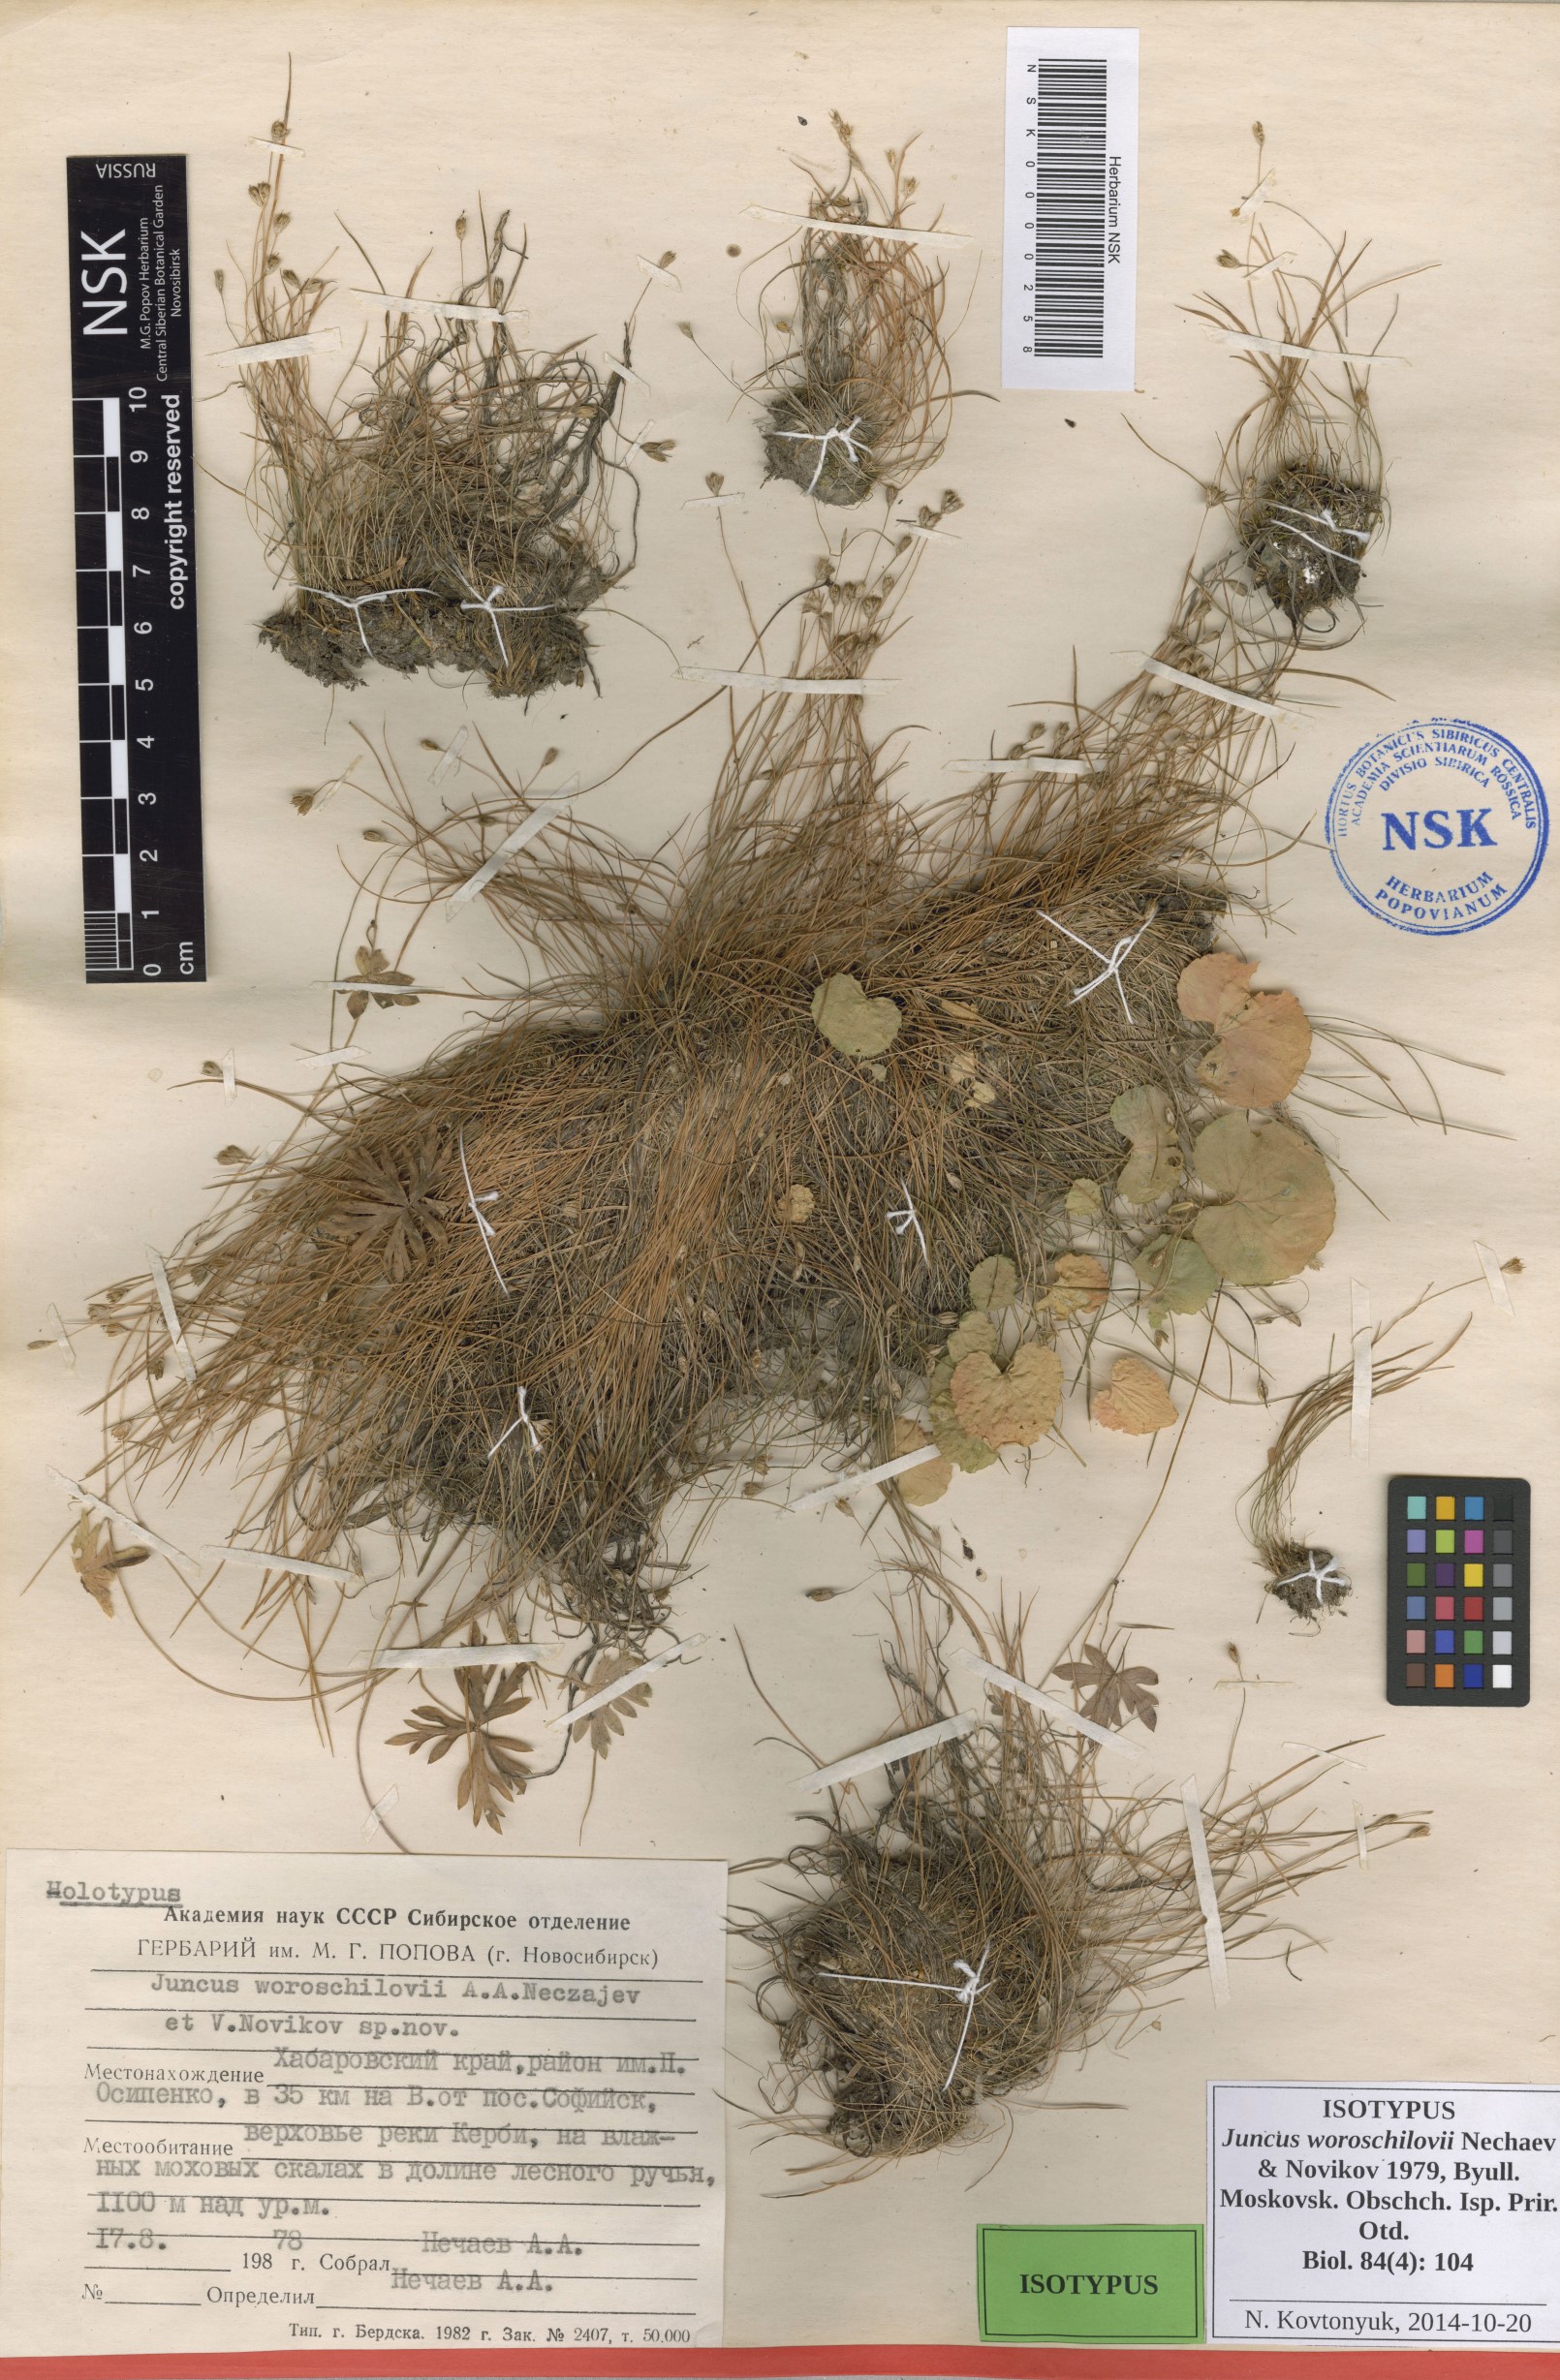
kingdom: Plantae
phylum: Tracheophyta
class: Liliopsida
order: Poales
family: Juncaceae
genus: Juncus
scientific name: Juncus potaninii
